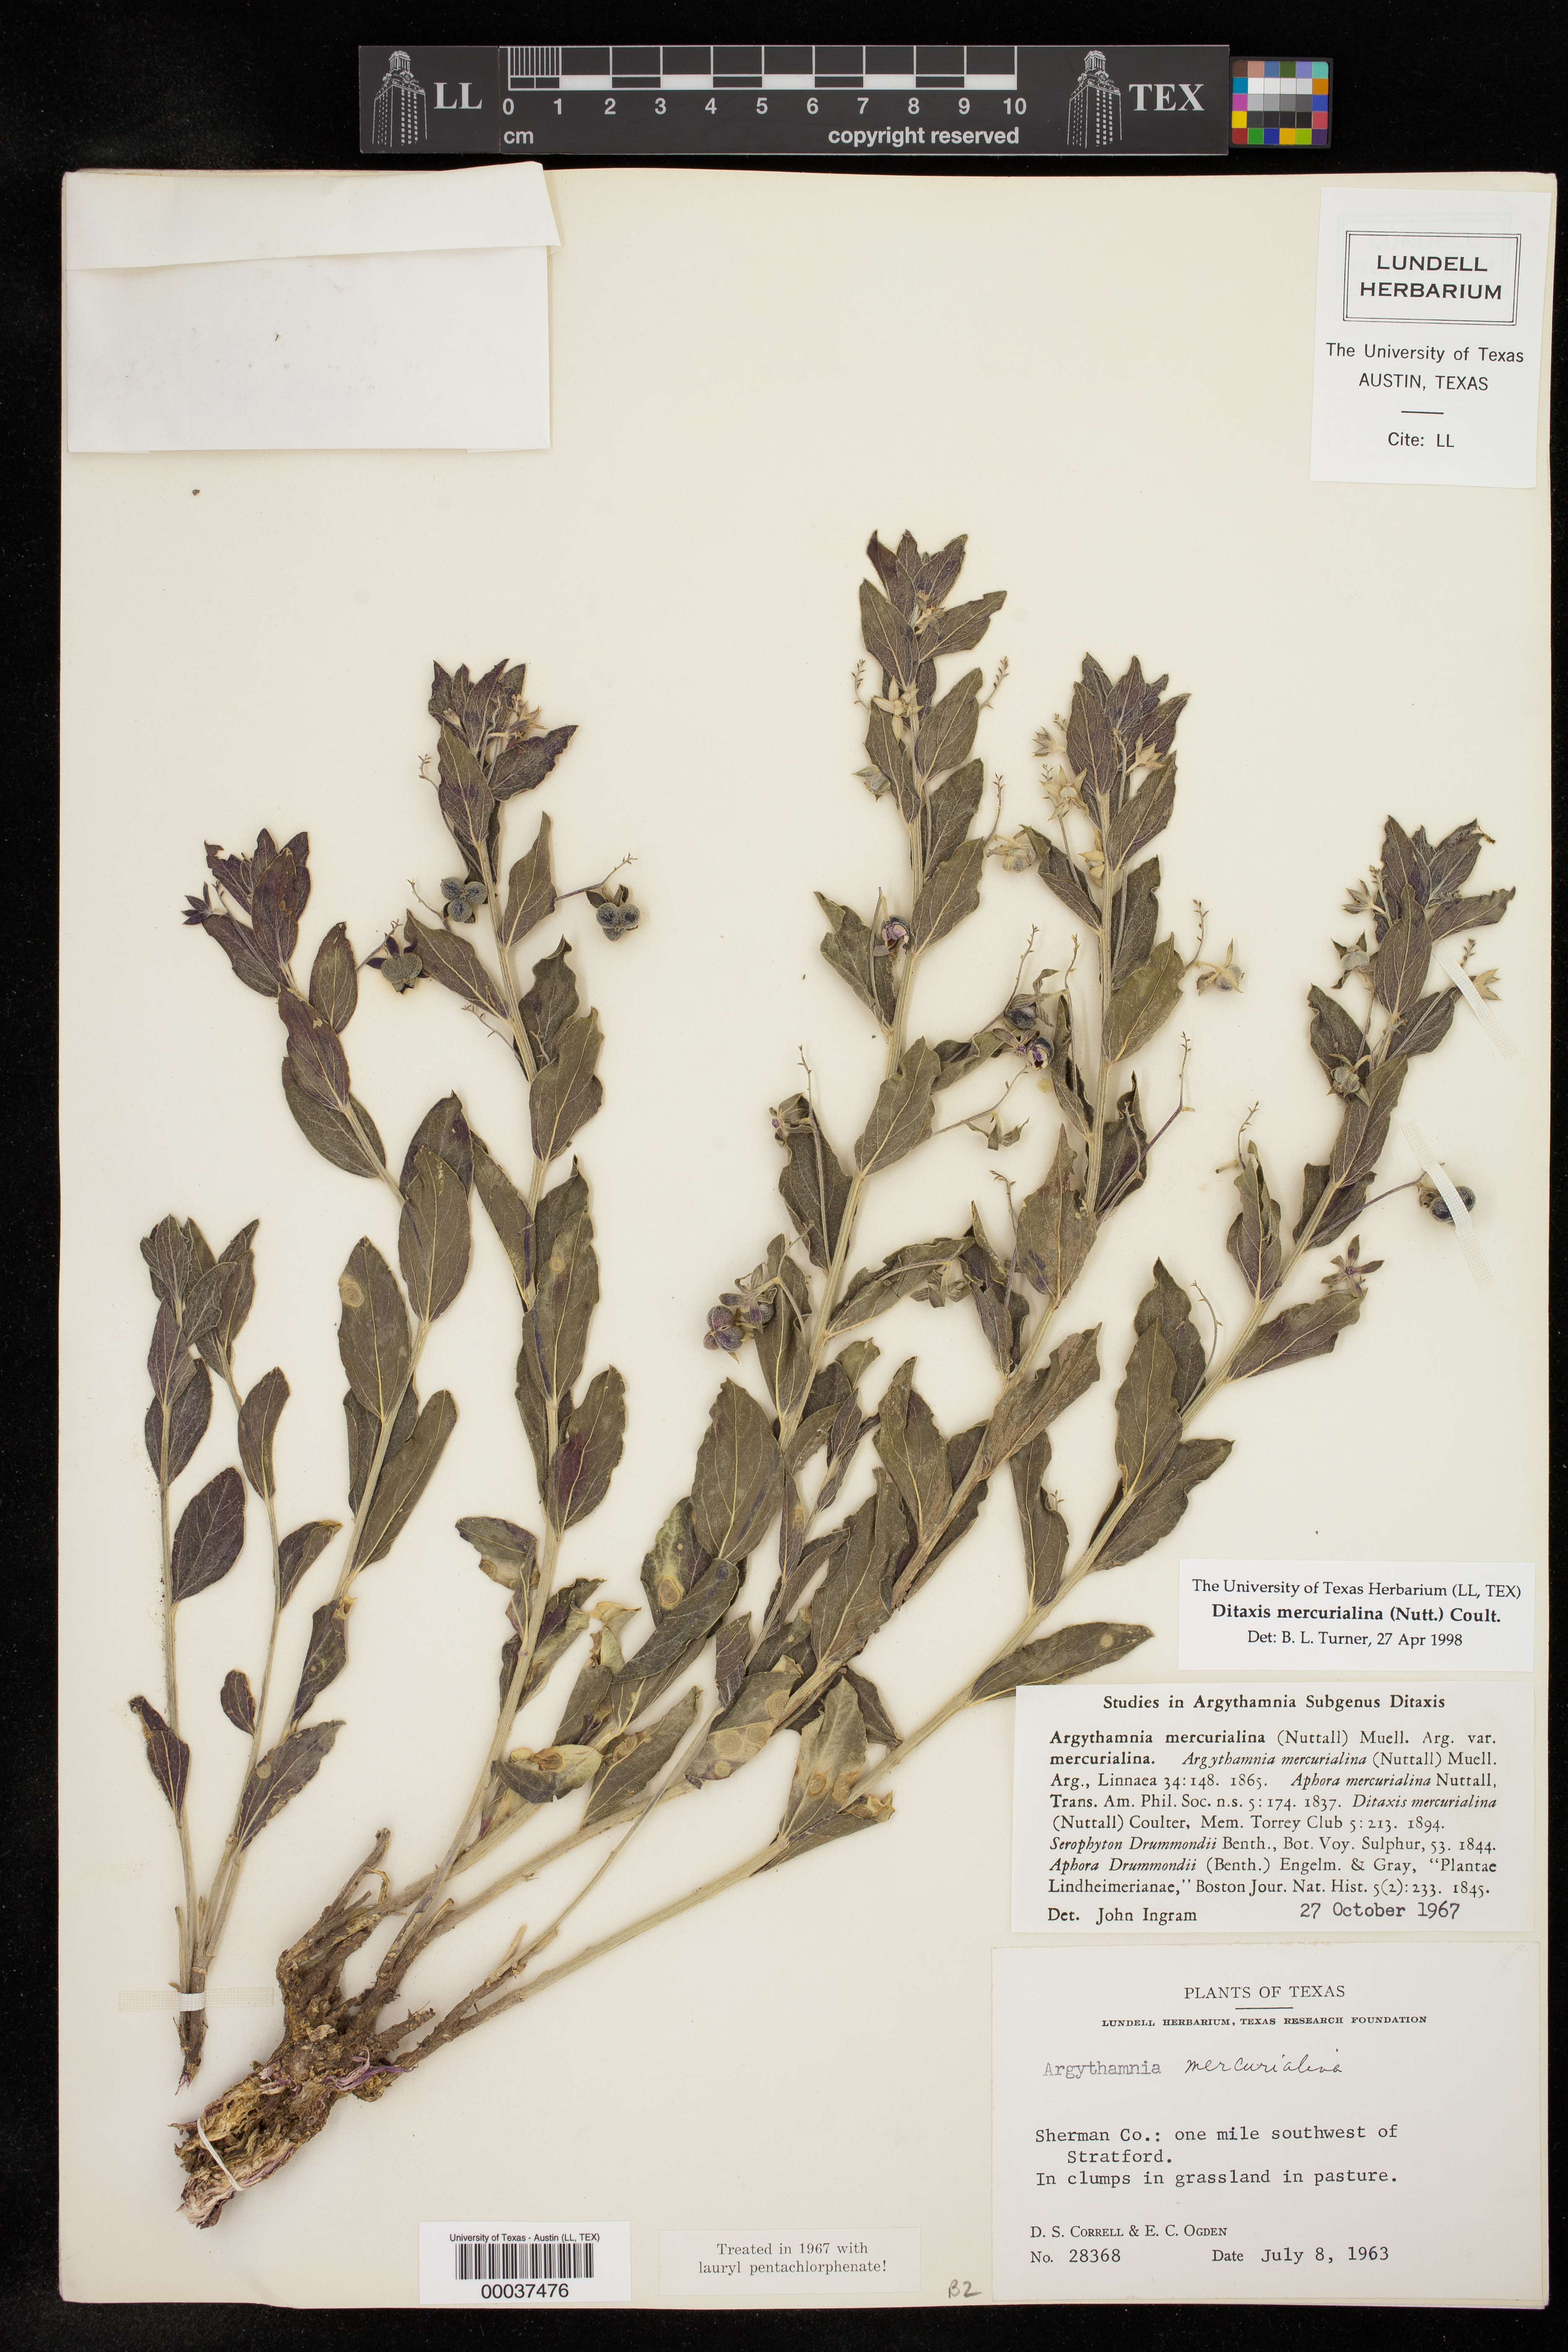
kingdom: Plantae
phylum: Tracheophyta
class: Magnoliopsida
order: Malpighiales
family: Euphorbiaceae
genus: Ditaxis
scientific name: Ditaxis mercurialina
